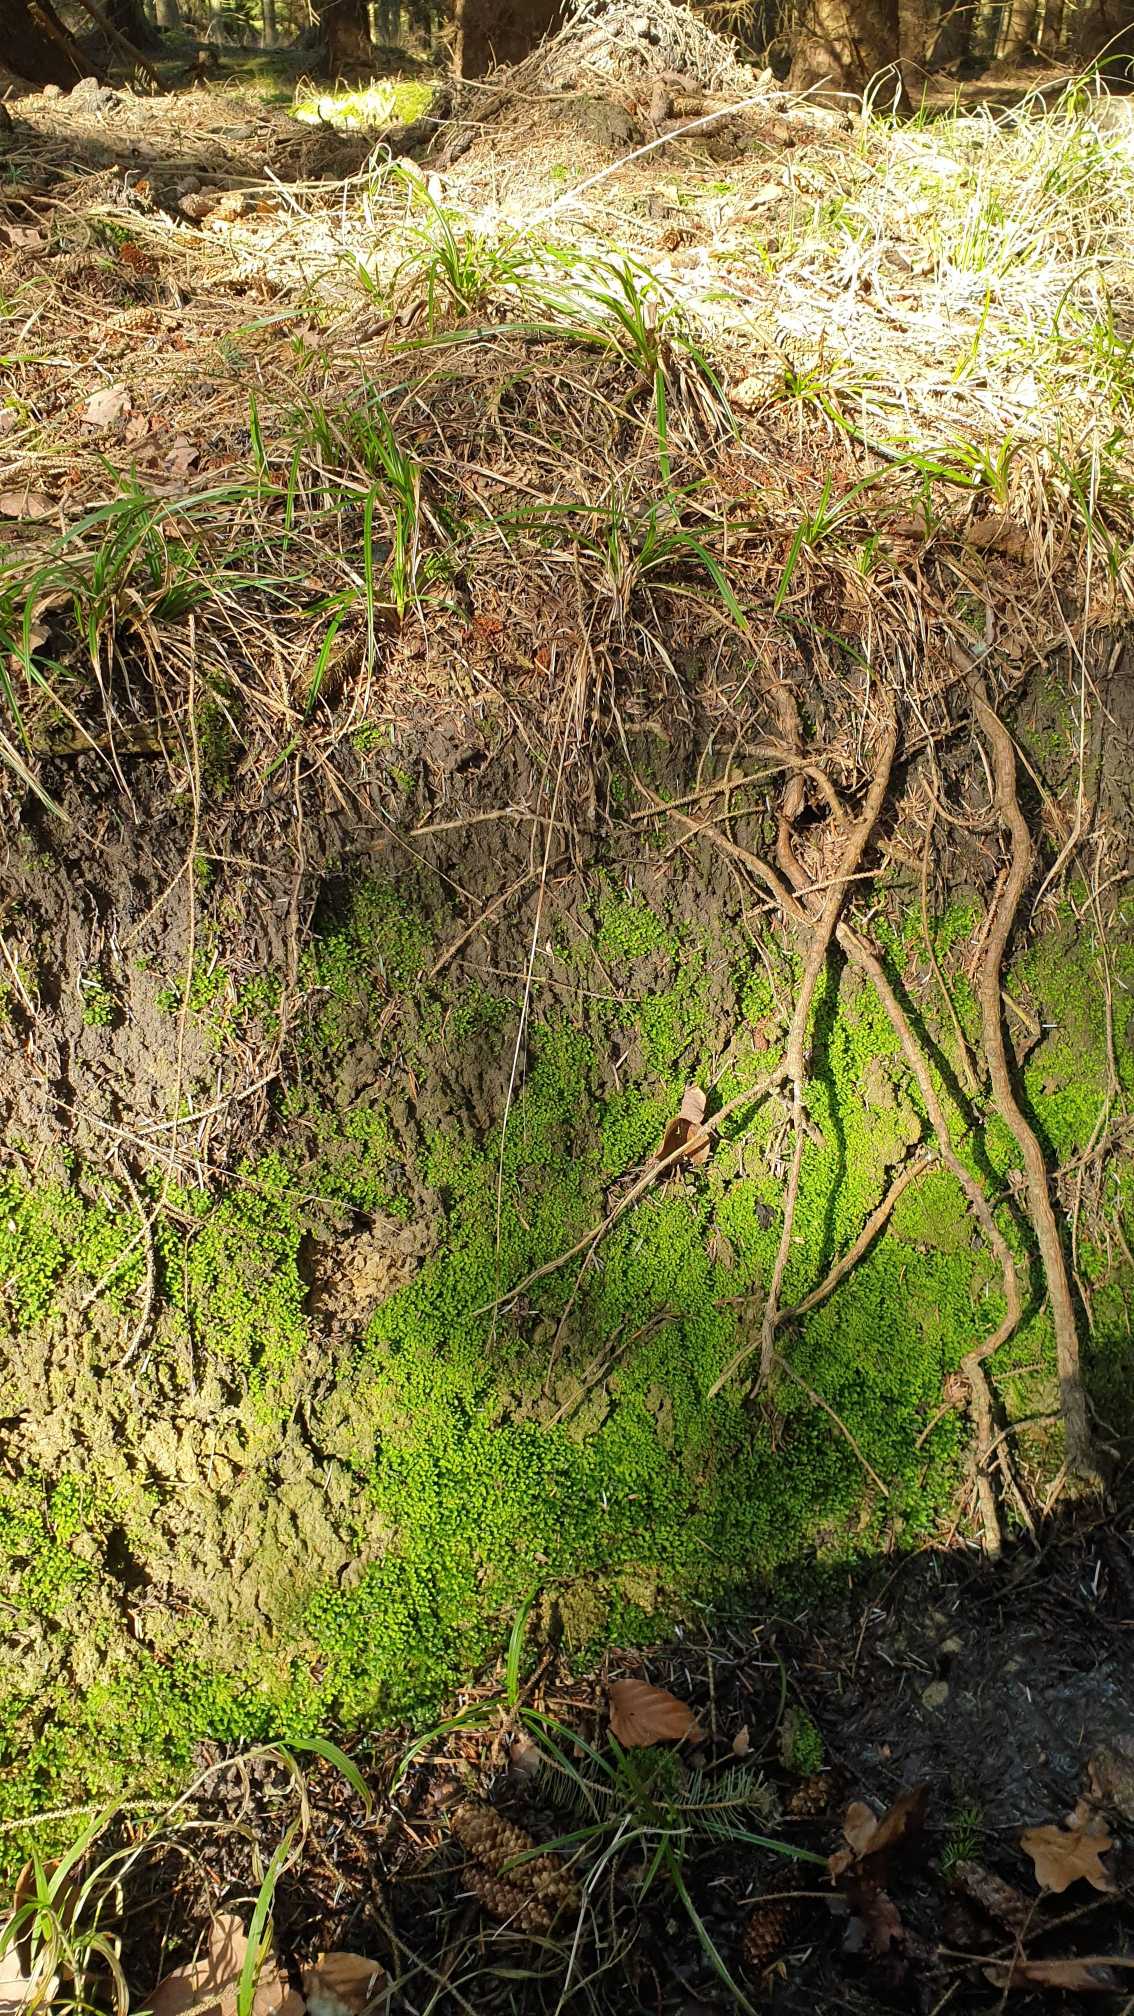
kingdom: Plantae
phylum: Bryophyta
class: Bryopsida
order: Dicranales
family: Fissidentaceae
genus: Fissidens
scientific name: Fissidens
